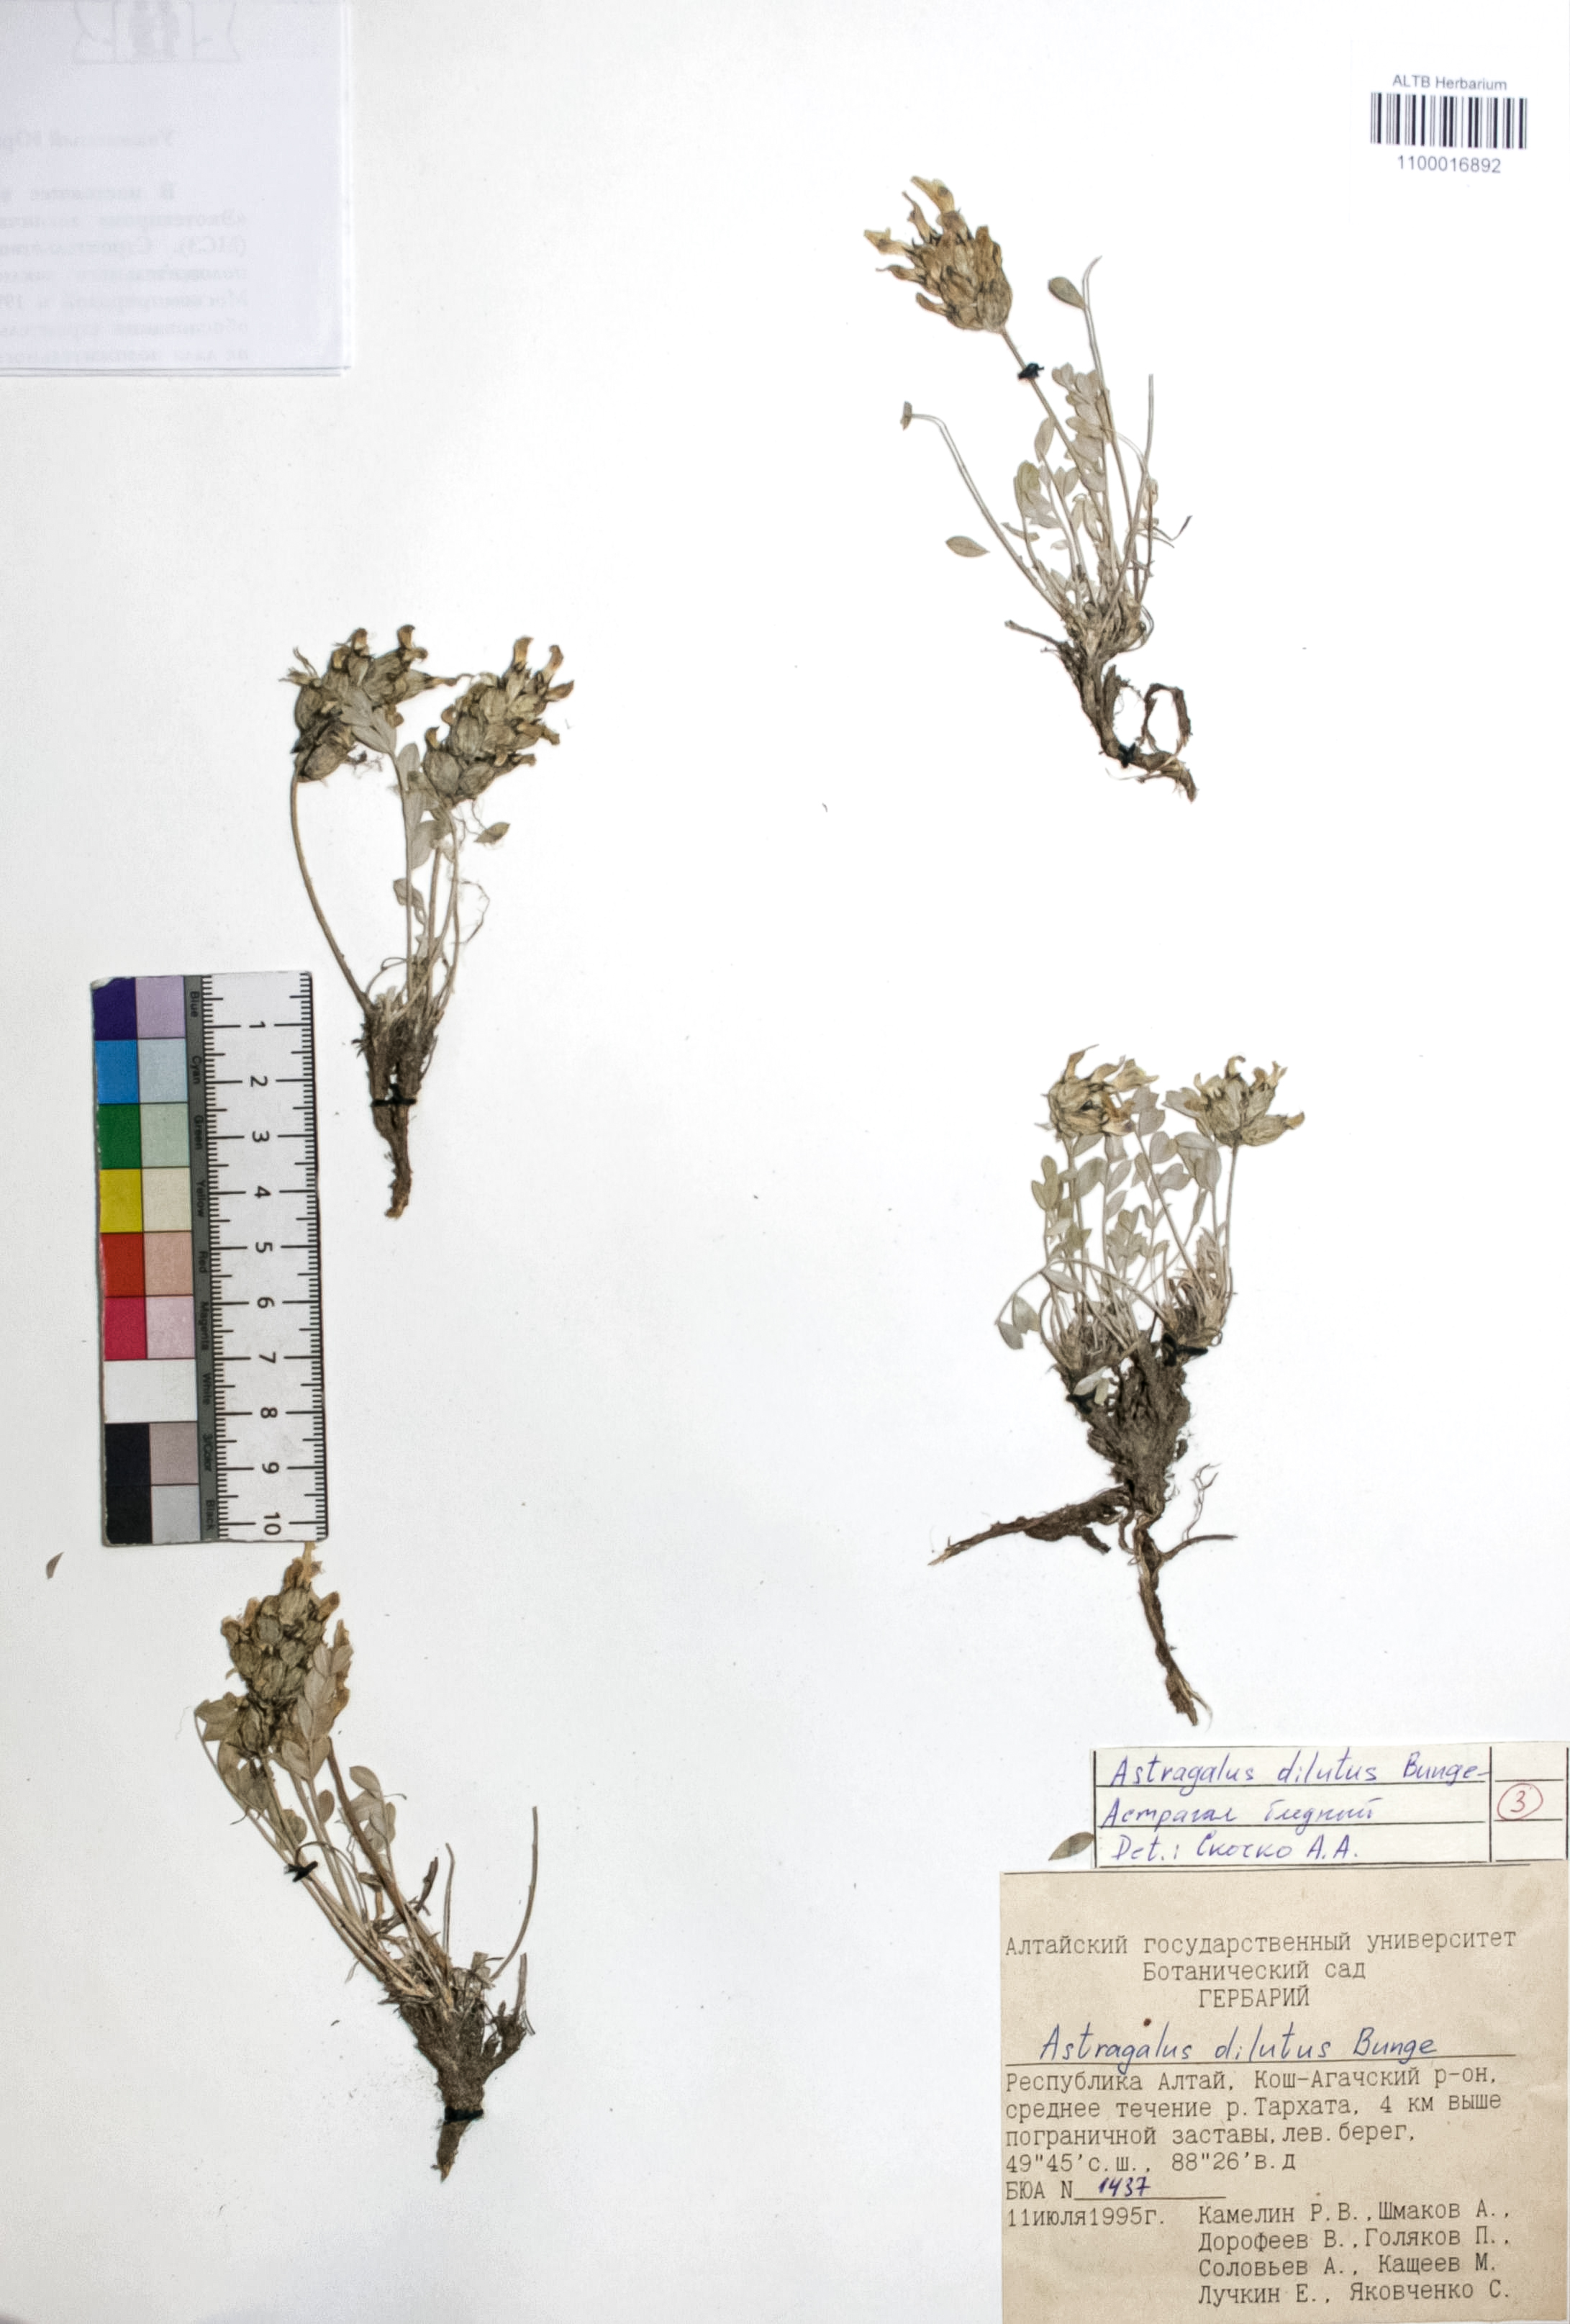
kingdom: Plantae
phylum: Tracheophyta
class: Magnoliopsida
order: Fabales
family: Fabaceae
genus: Astragalus
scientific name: Astragalus dilutus
